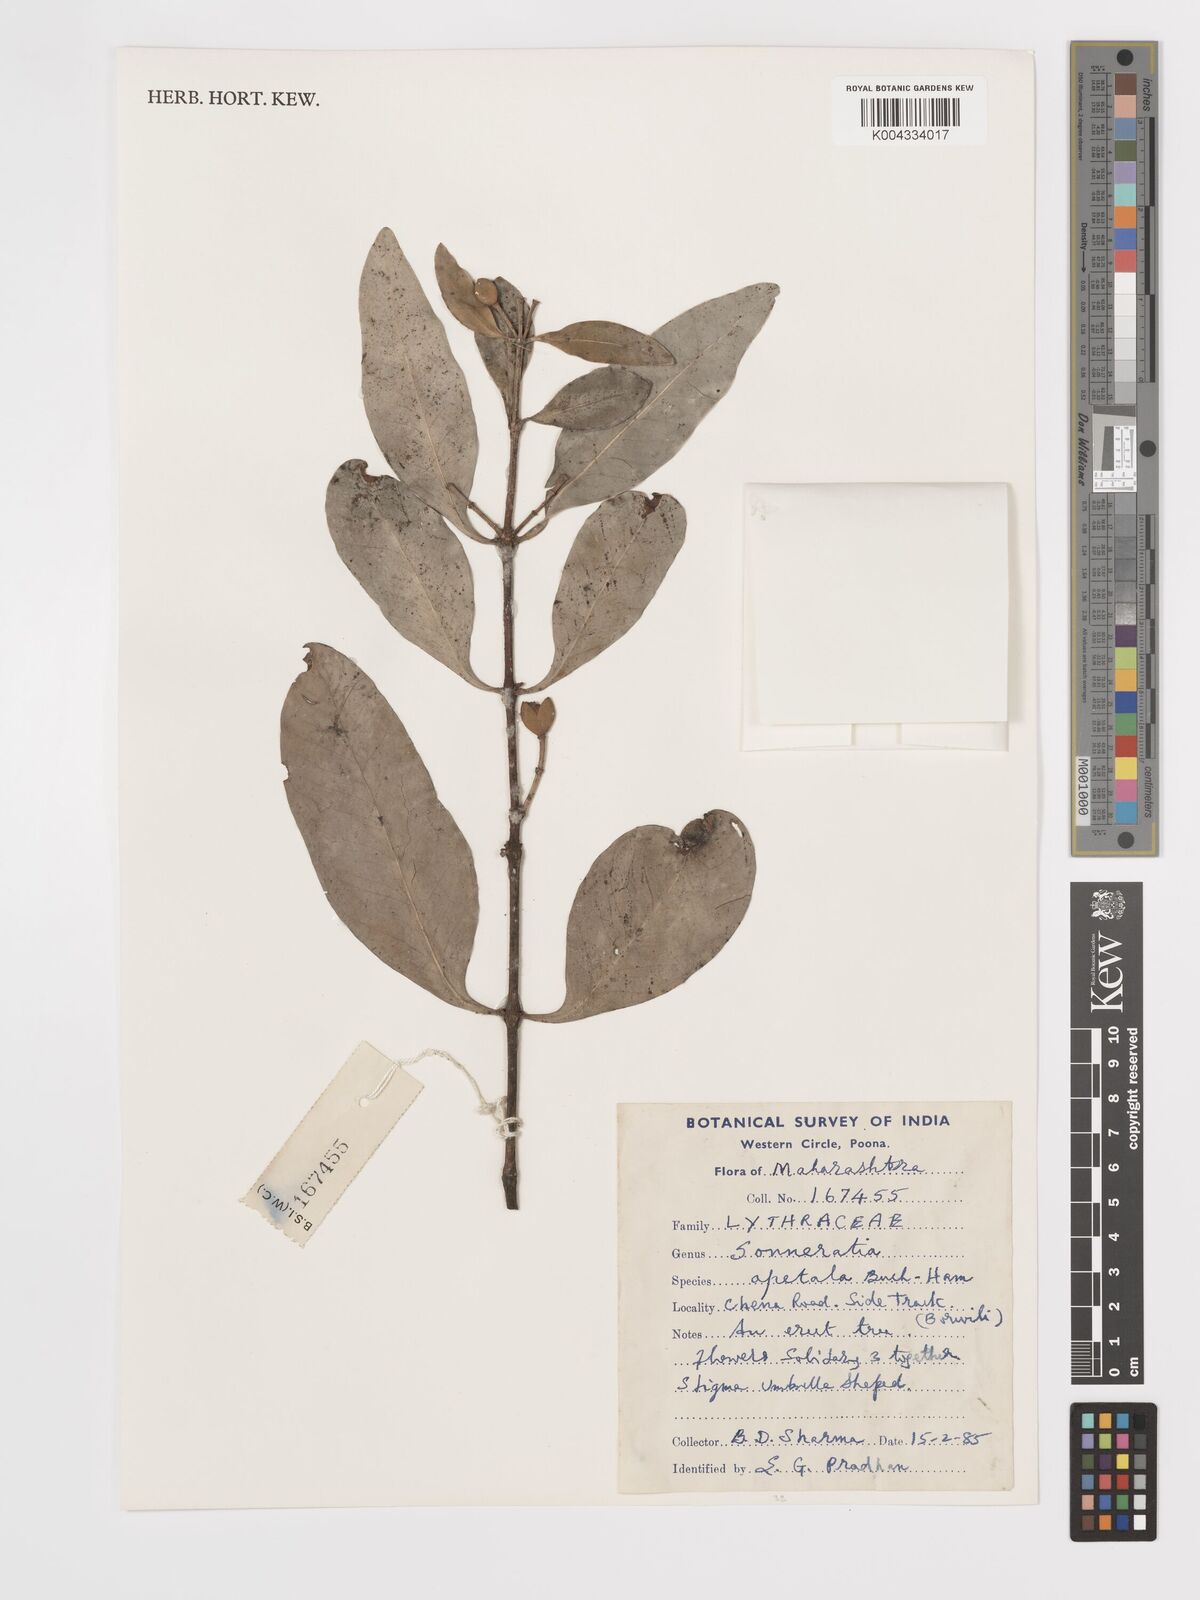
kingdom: Plantae
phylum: Tracheophyta
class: Magnoliopsida
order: Myrtales
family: Lythraceae
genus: Sonneratia
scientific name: Sonneratia apetala
